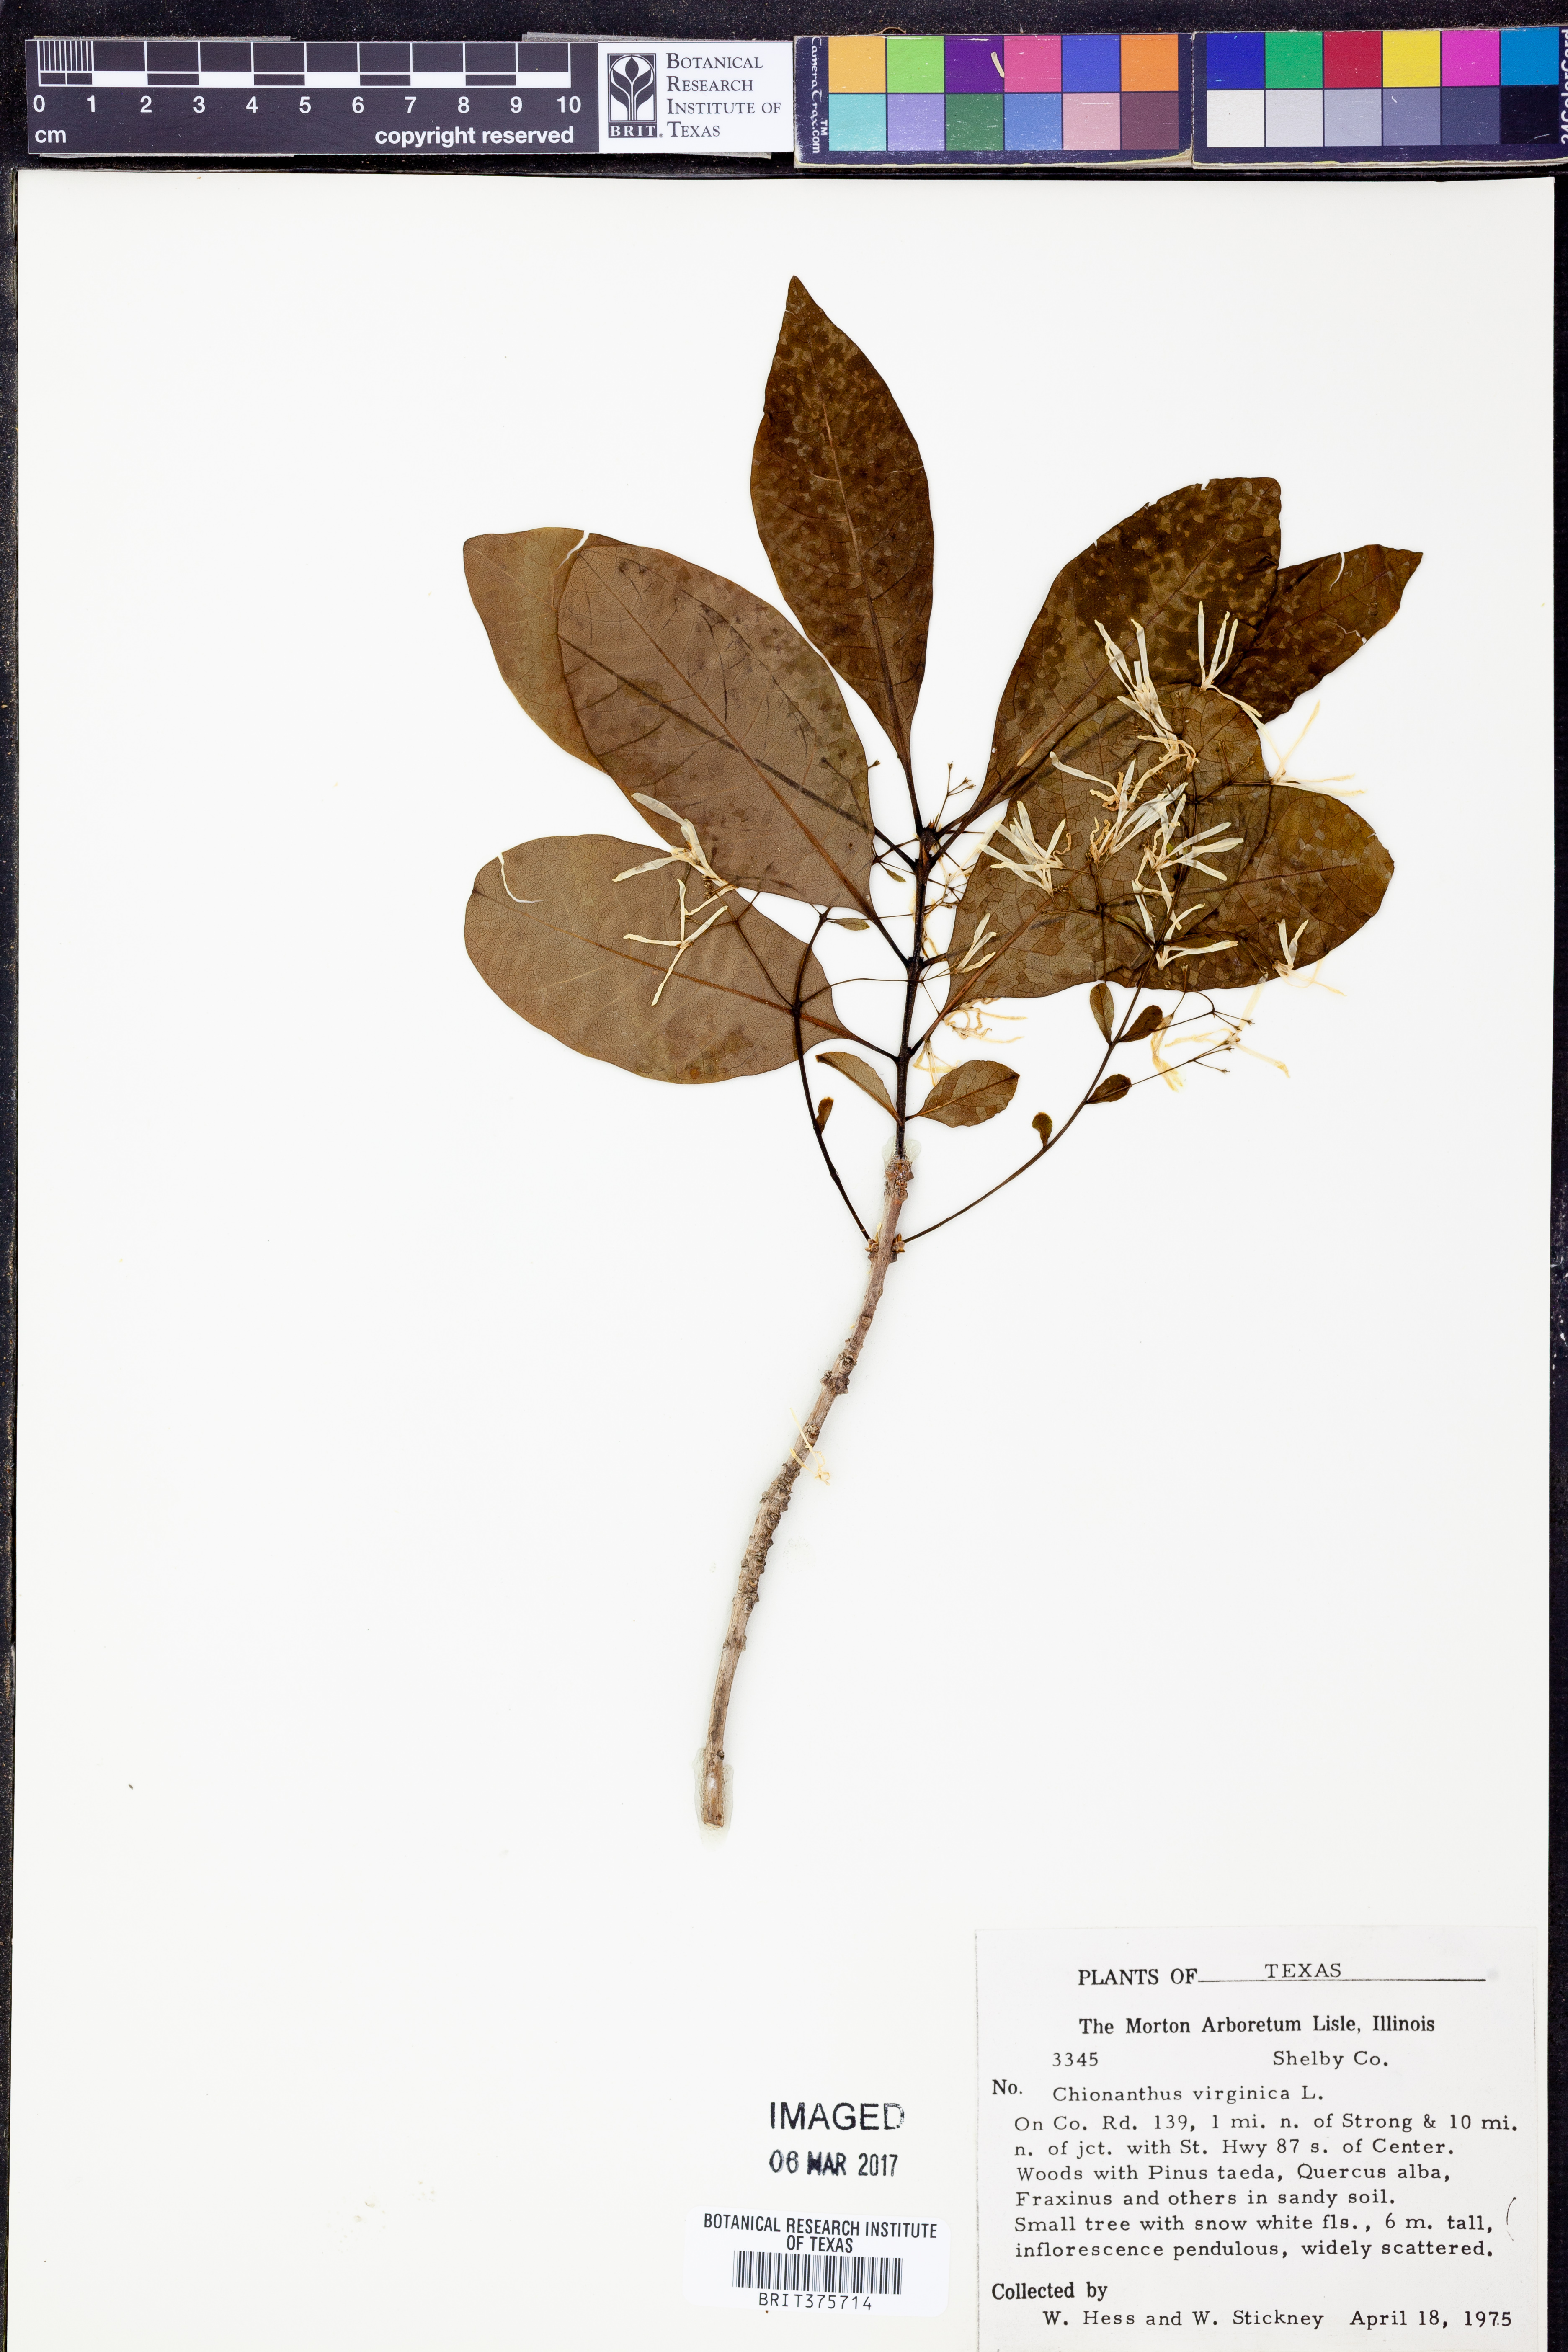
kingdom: Plantae
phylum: Tracheophyta
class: Magnoliopsida
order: Lamiales
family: Oleaceae
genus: Chionanthus
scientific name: Chionanthus virginicus
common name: American fringetree
